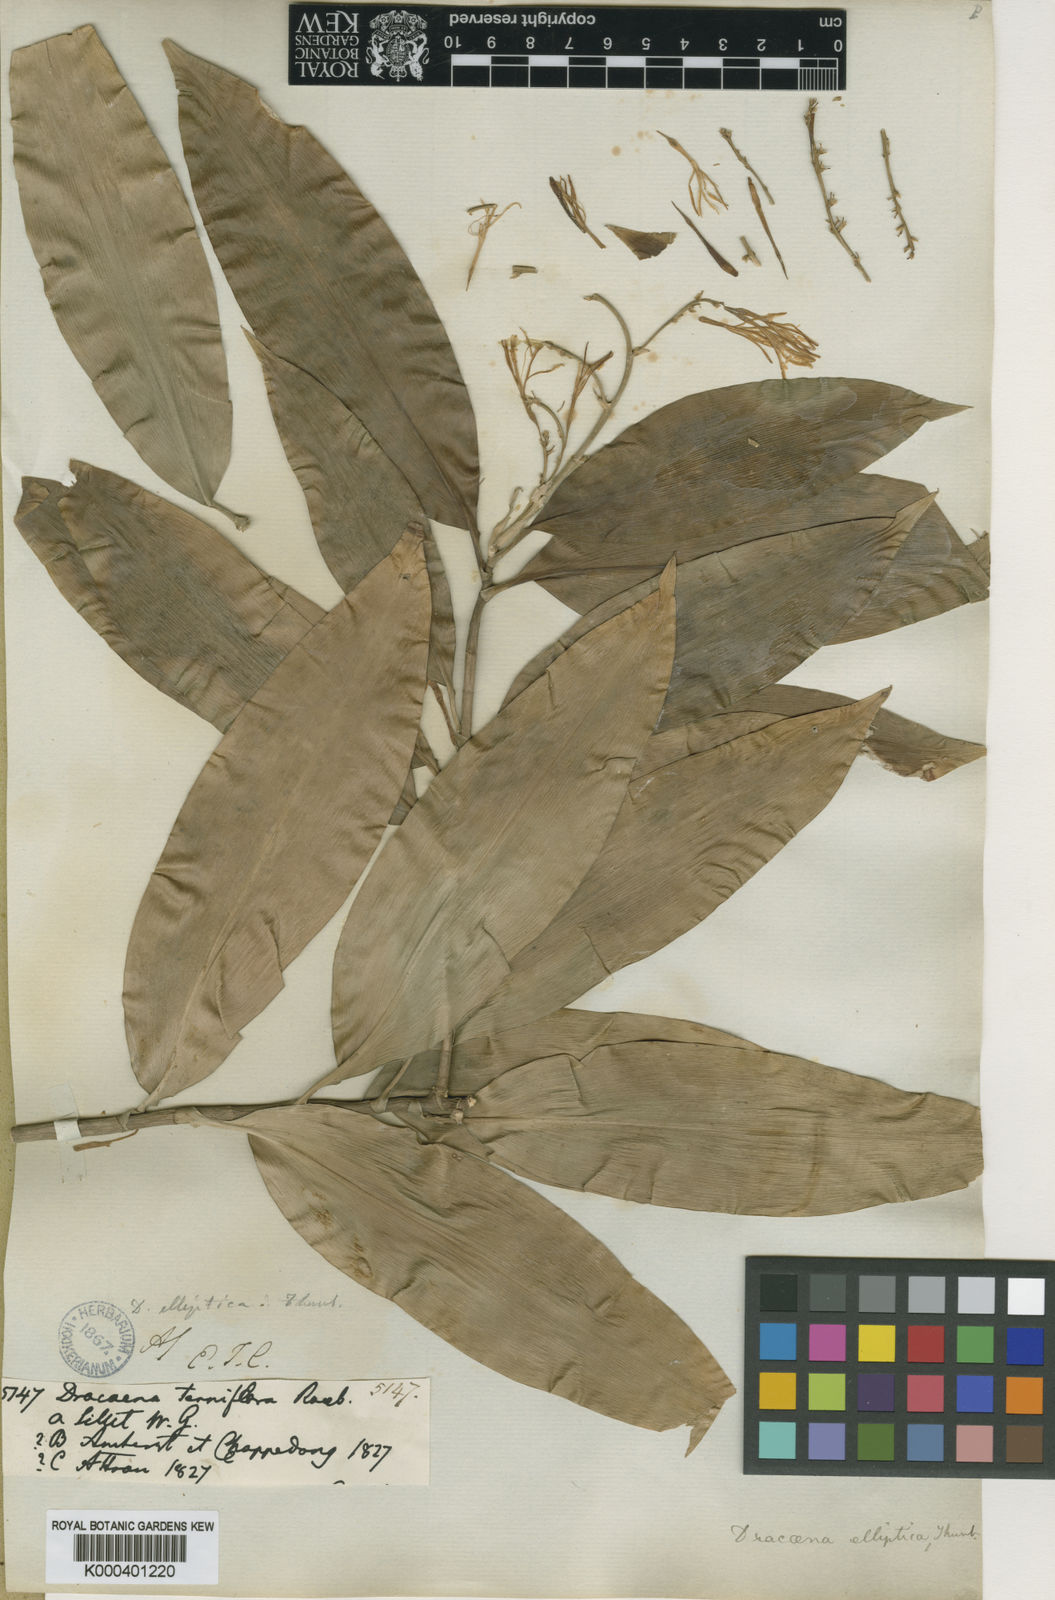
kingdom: Plantae
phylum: Tracheophyta
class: Liliopsida
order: Asparagales
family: Asparagaceae
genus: Dracaena
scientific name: Dracaena elliptica
